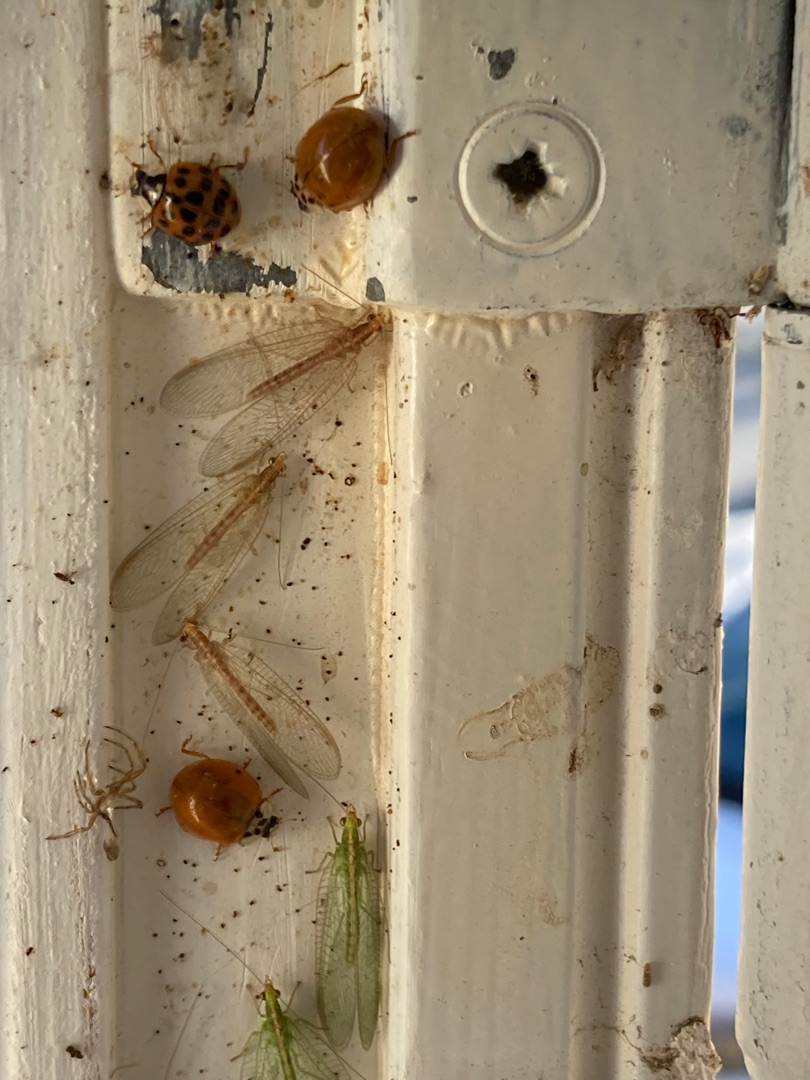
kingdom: Animalia
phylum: Arthropoda
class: Insecta
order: Coleoptera
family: Coccinellidae
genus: Harmonia
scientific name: Harmonia axyridis
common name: Harlekinmariehøne
